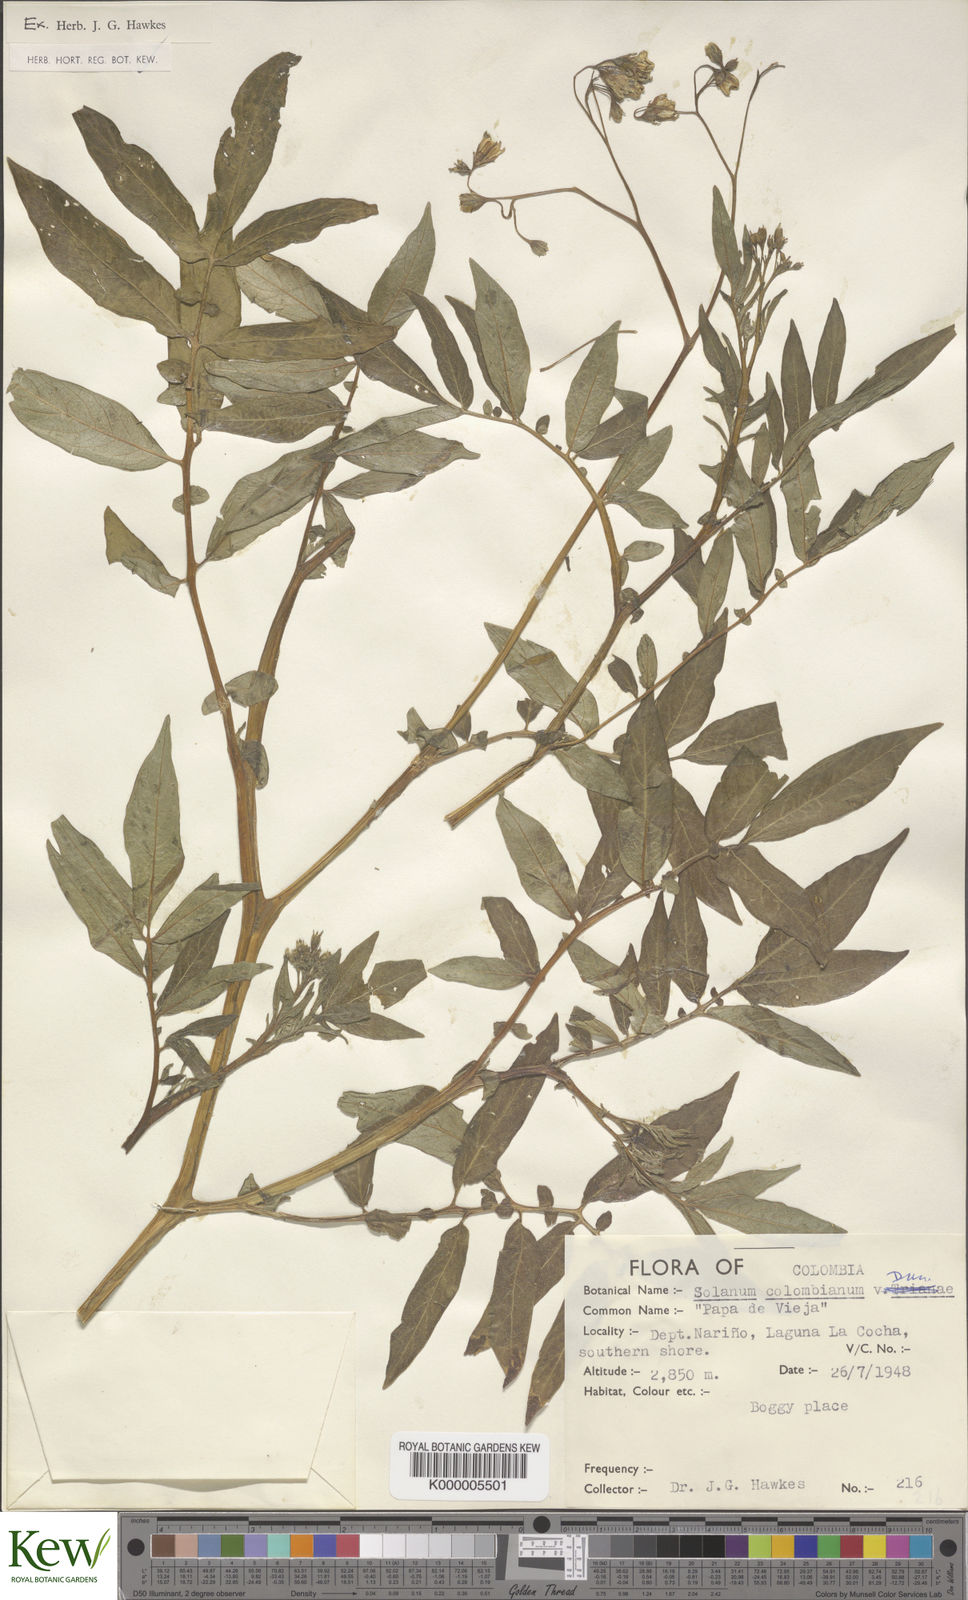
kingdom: Plantae
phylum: Tracheophyta
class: Magnoliopsida
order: Solanales
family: Solanaceae
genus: Solanum
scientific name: Solanum colombianum
